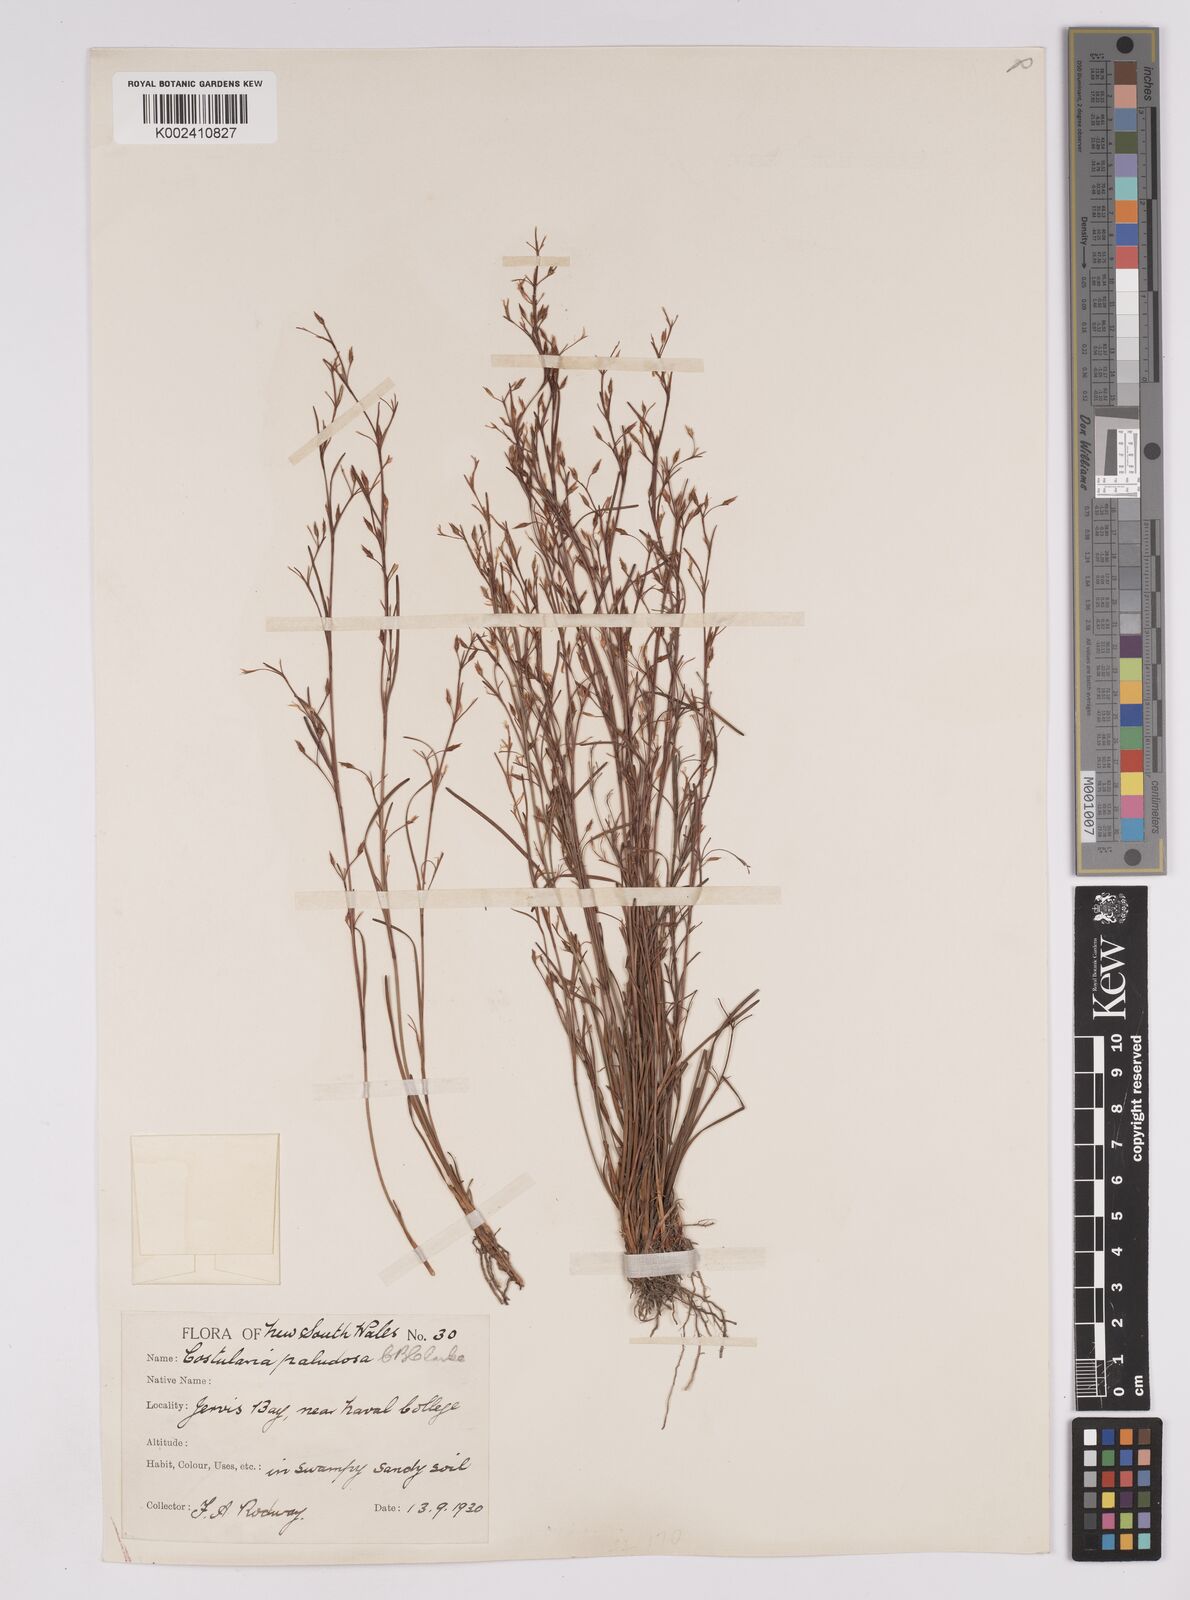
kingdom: Plantae
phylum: Tracheophyta
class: Liliopsida
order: Poales
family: Cyperaceae
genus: Anthelepis
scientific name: Anthelepis paludosa
